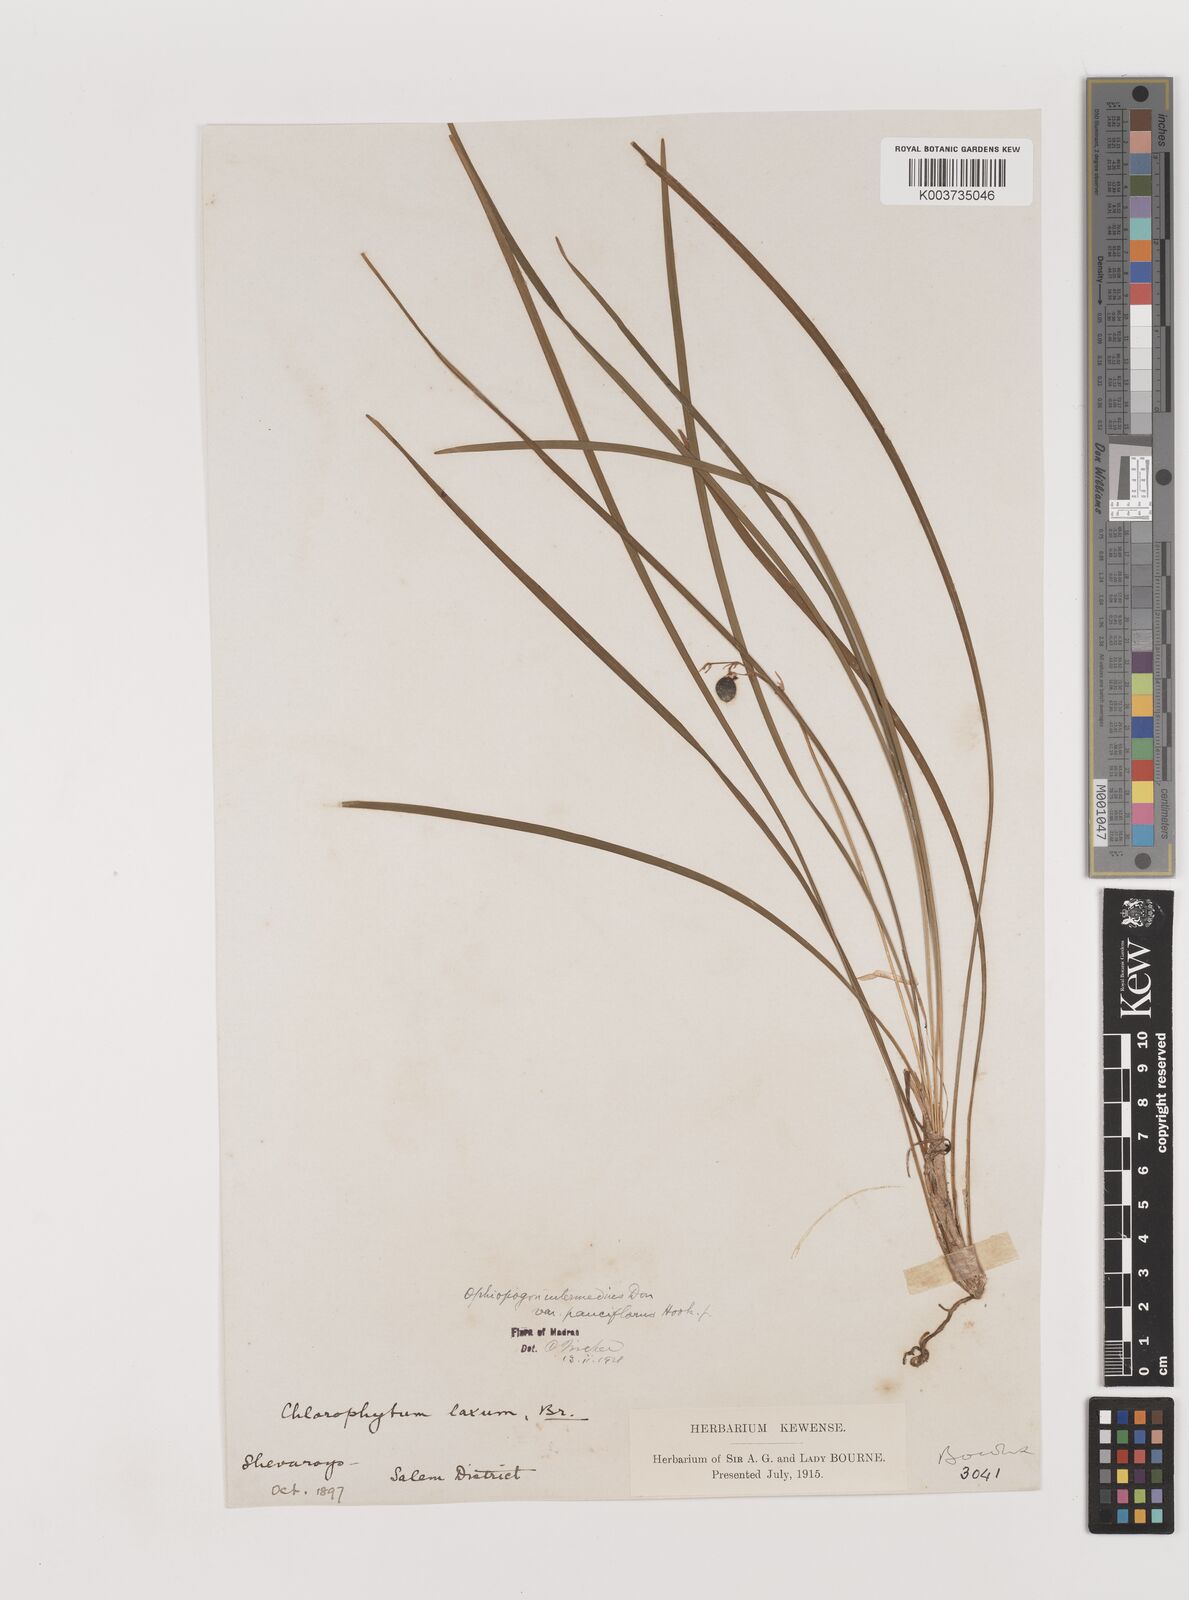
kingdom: Plantae
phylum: Tracheophyta
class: Liliopsida
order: Asparagales
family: Asparagaceae
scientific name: Asparagaceae
